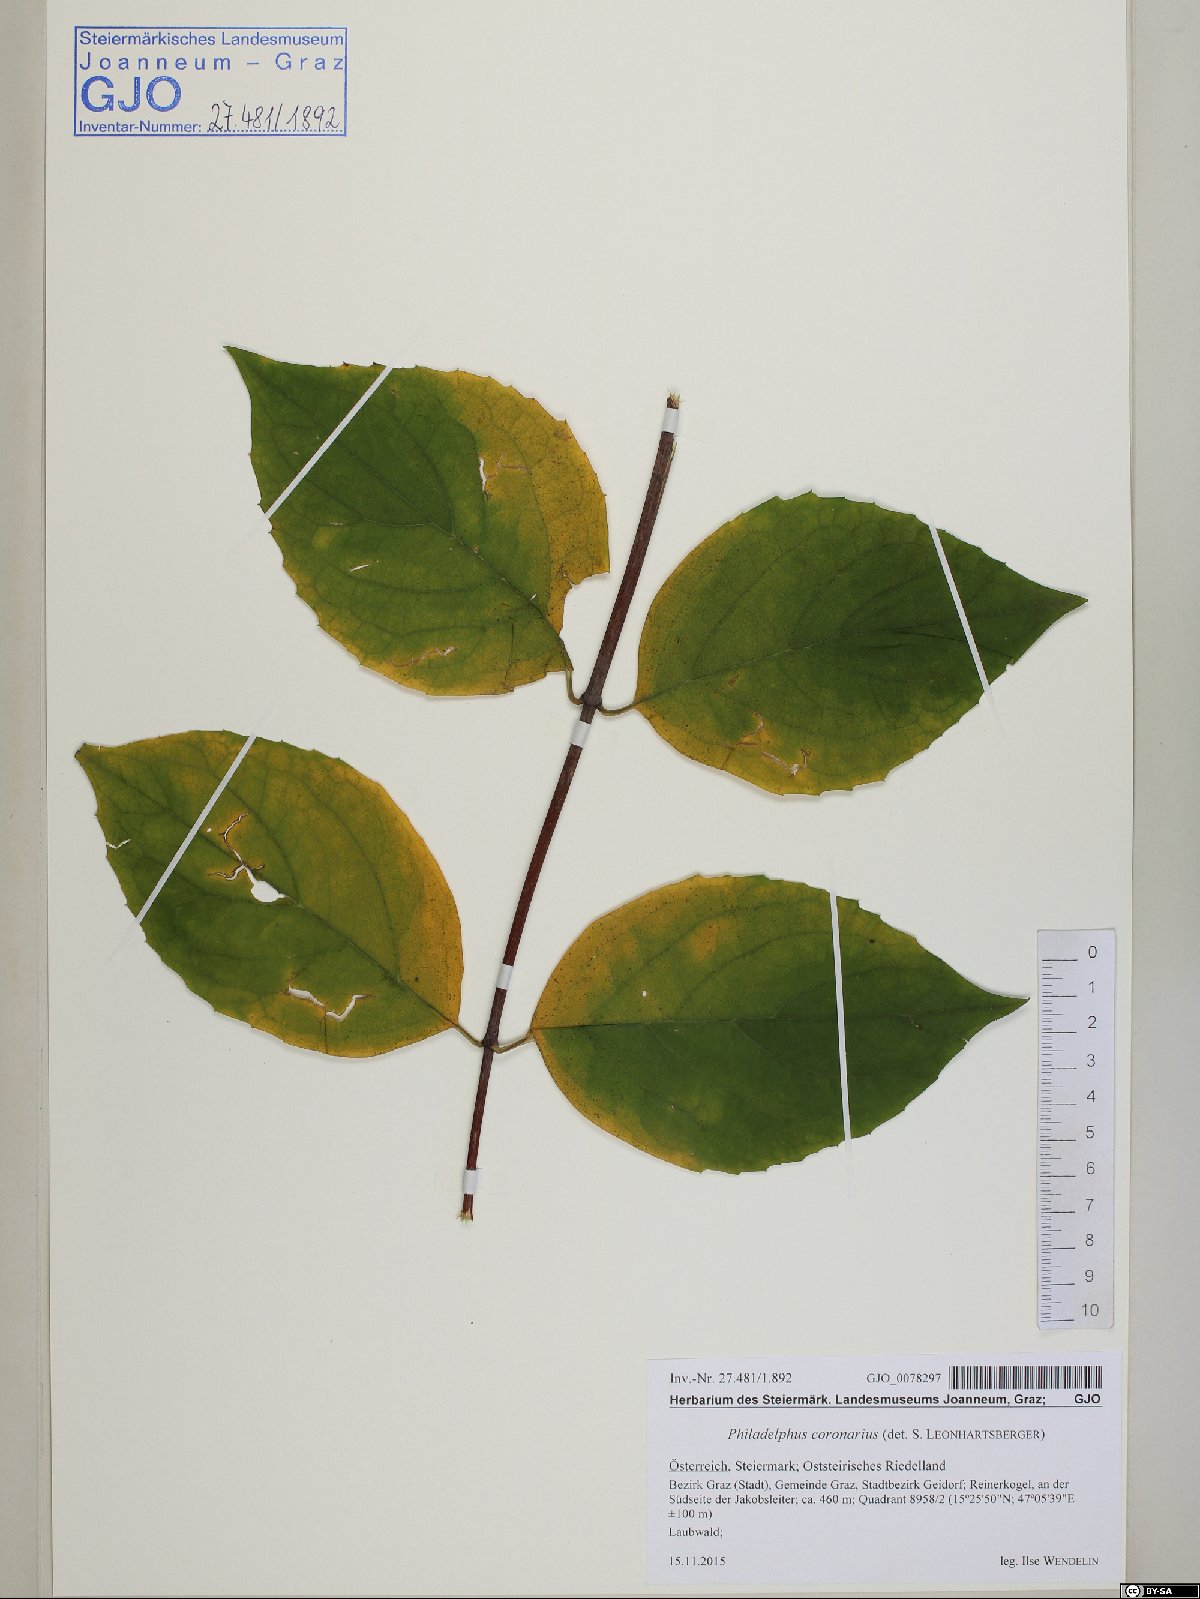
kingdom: Plantae
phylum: Tracheophyta
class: Magnoliopsida
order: Cornales
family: Hydrangeaceae
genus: Philadelphus
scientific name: Philadelphus coronarius
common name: Mock orange
